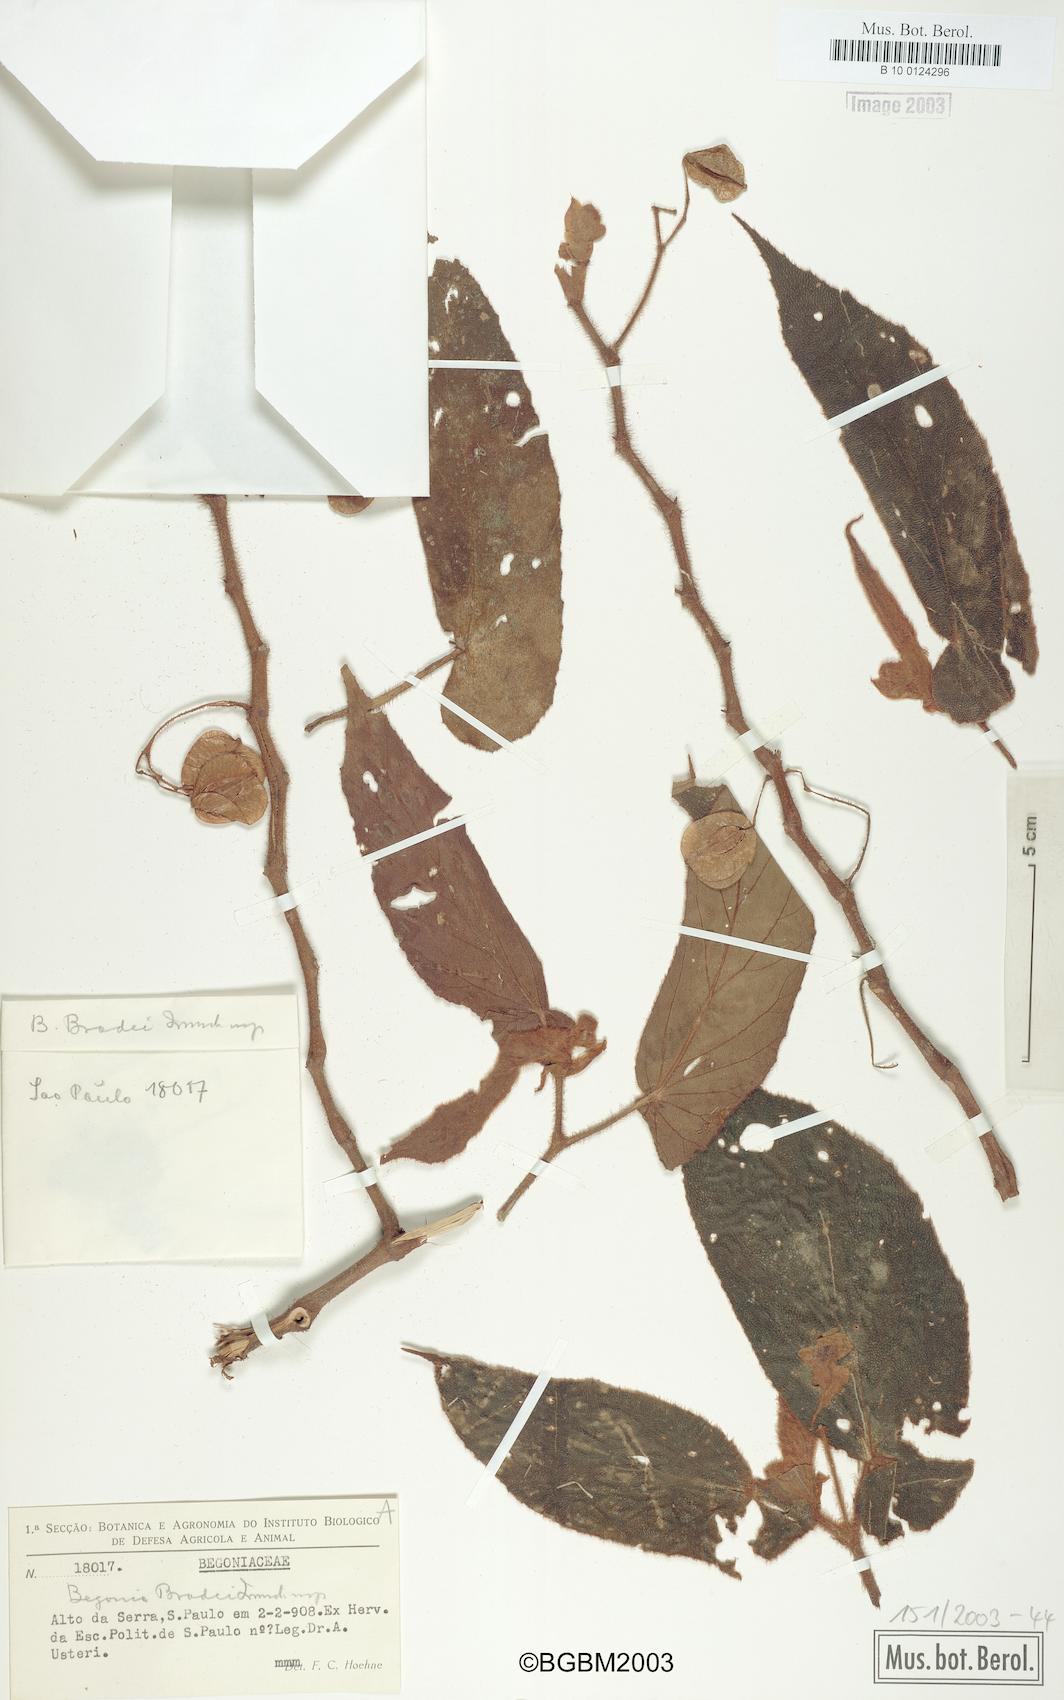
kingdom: Plantae
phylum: Tracheophyta
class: Magnoliopsida
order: Cucurbitales
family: Begoniaceae
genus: Begonia
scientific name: Begonia bradei
